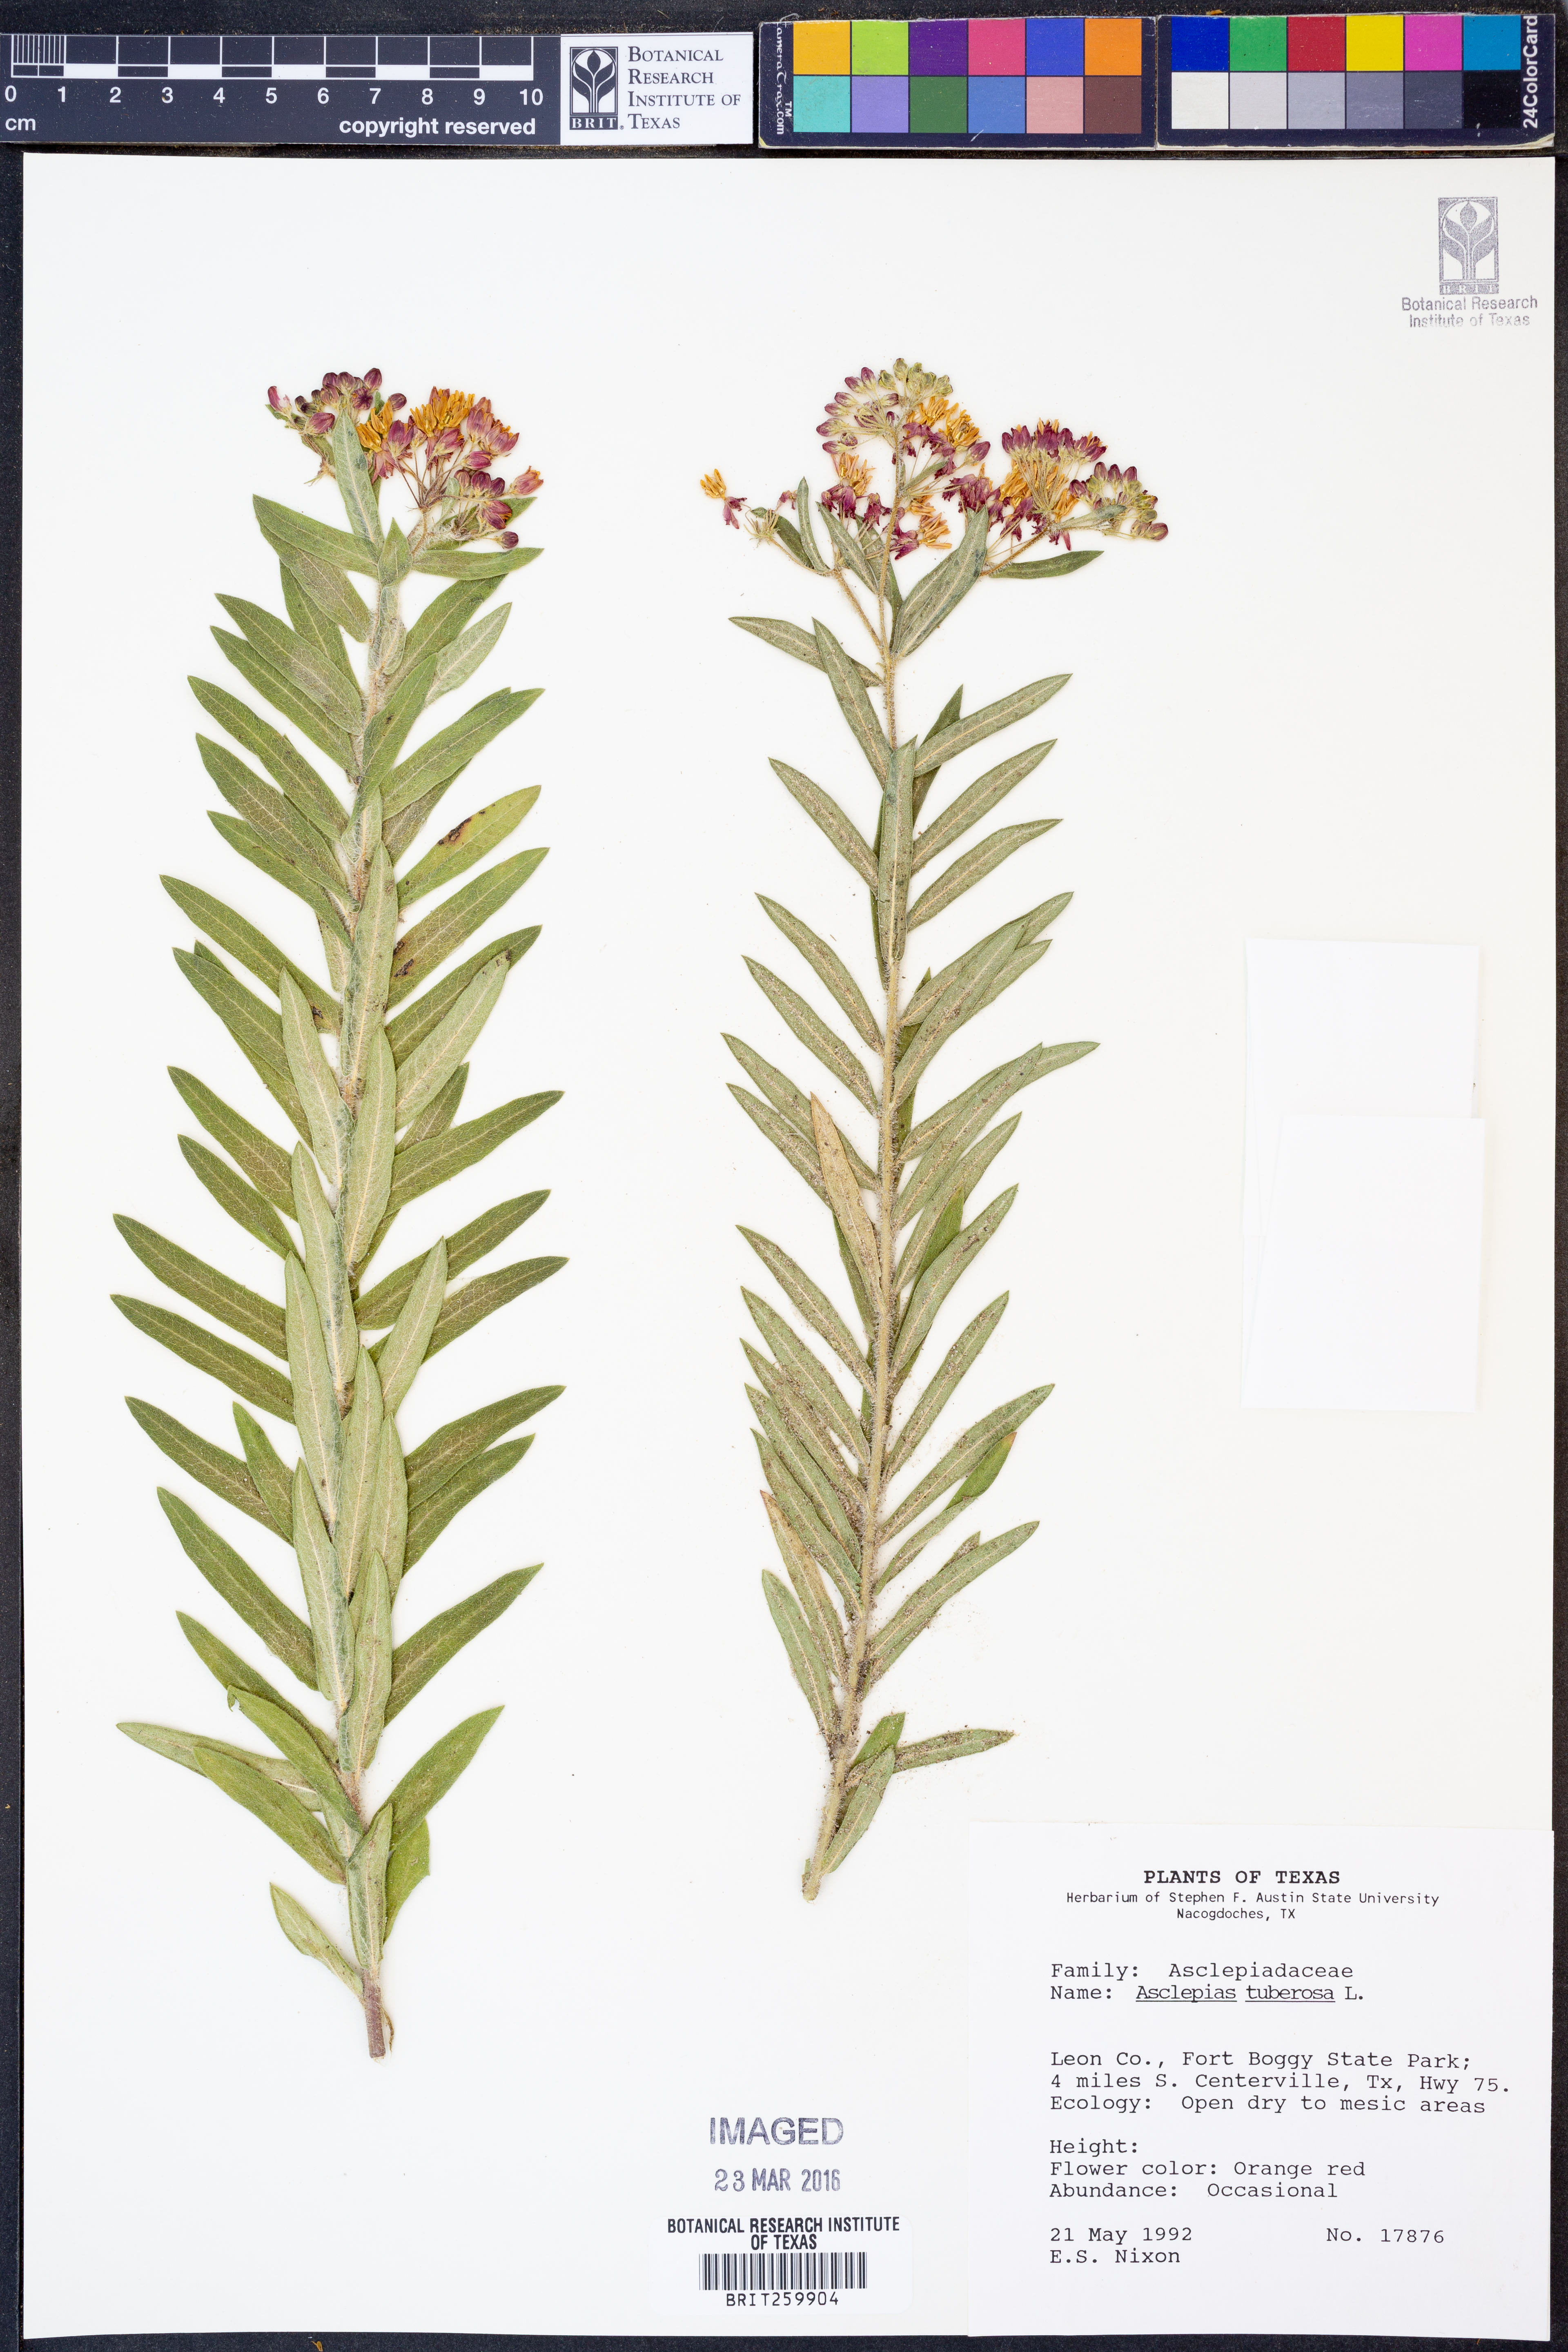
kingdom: Plantae
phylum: Tracheophyta
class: Magnoliopsida
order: Gentianales
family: Apocynaceae
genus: Asclepias
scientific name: Asclepias tuberosa
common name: Butterfly milkweed
